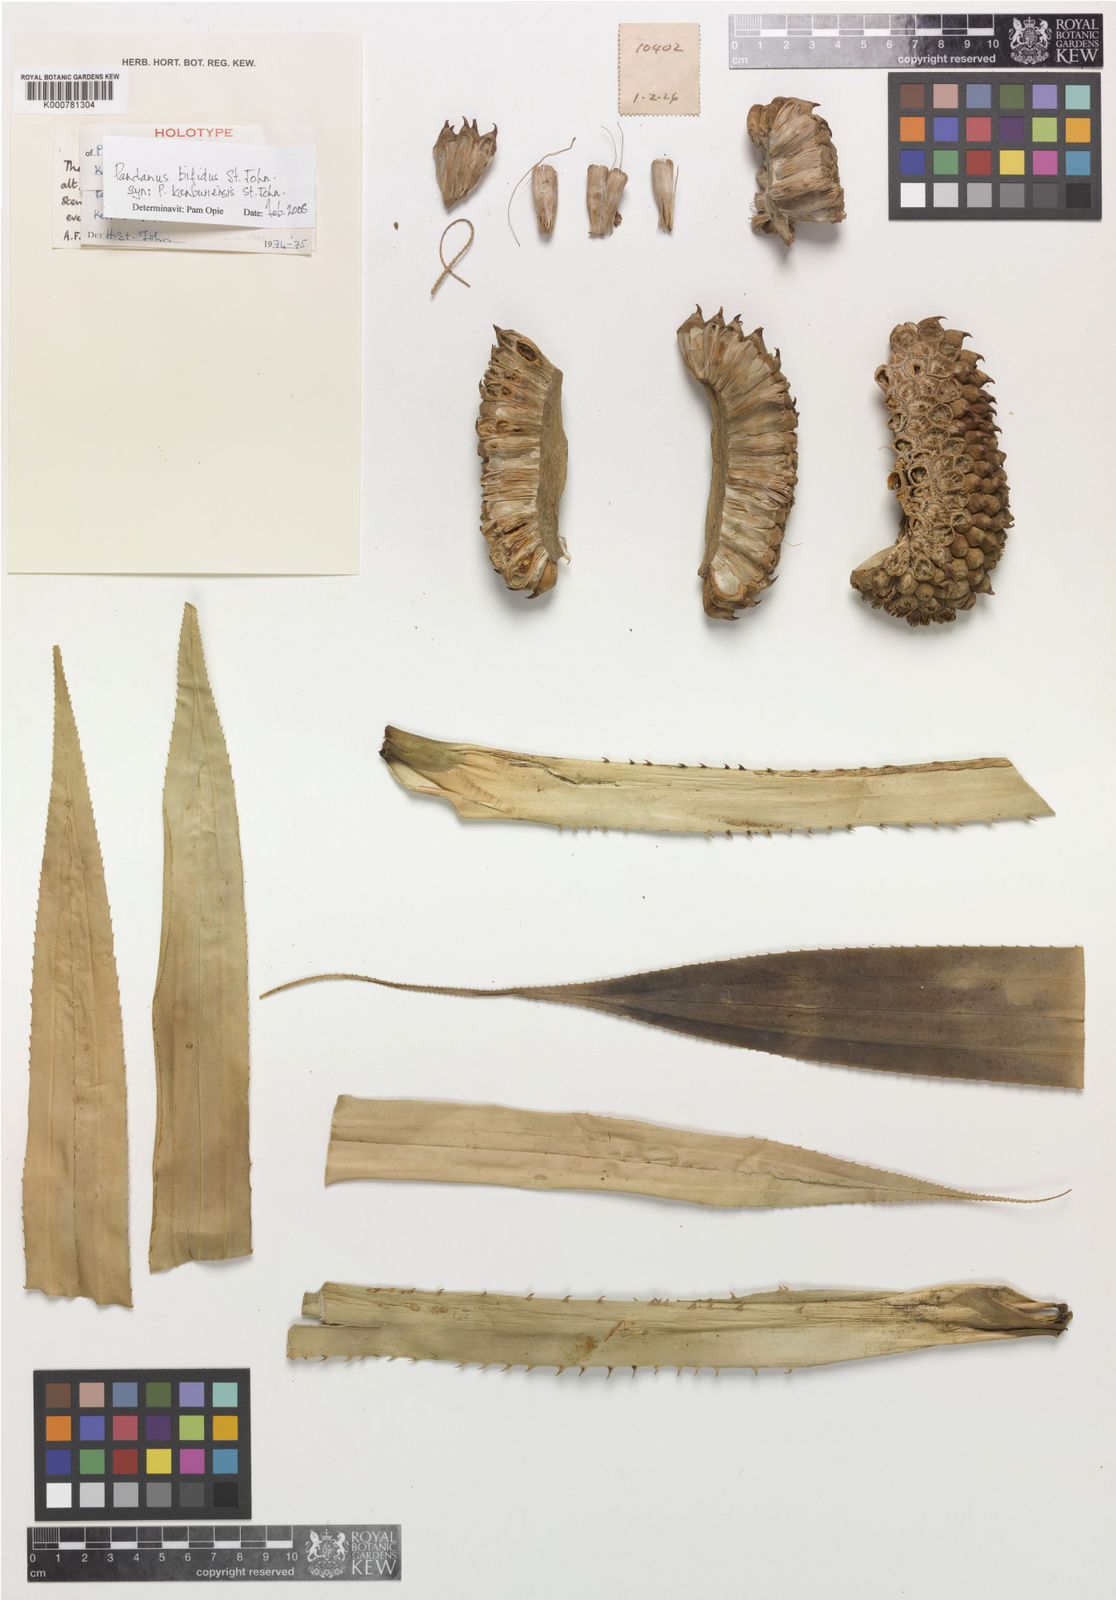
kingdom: Plantae
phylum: Tracheophyta
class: Liliopsida
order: Pandanales
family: Pandanaceae
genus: Pandanus
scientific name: Pandanus obconicus
